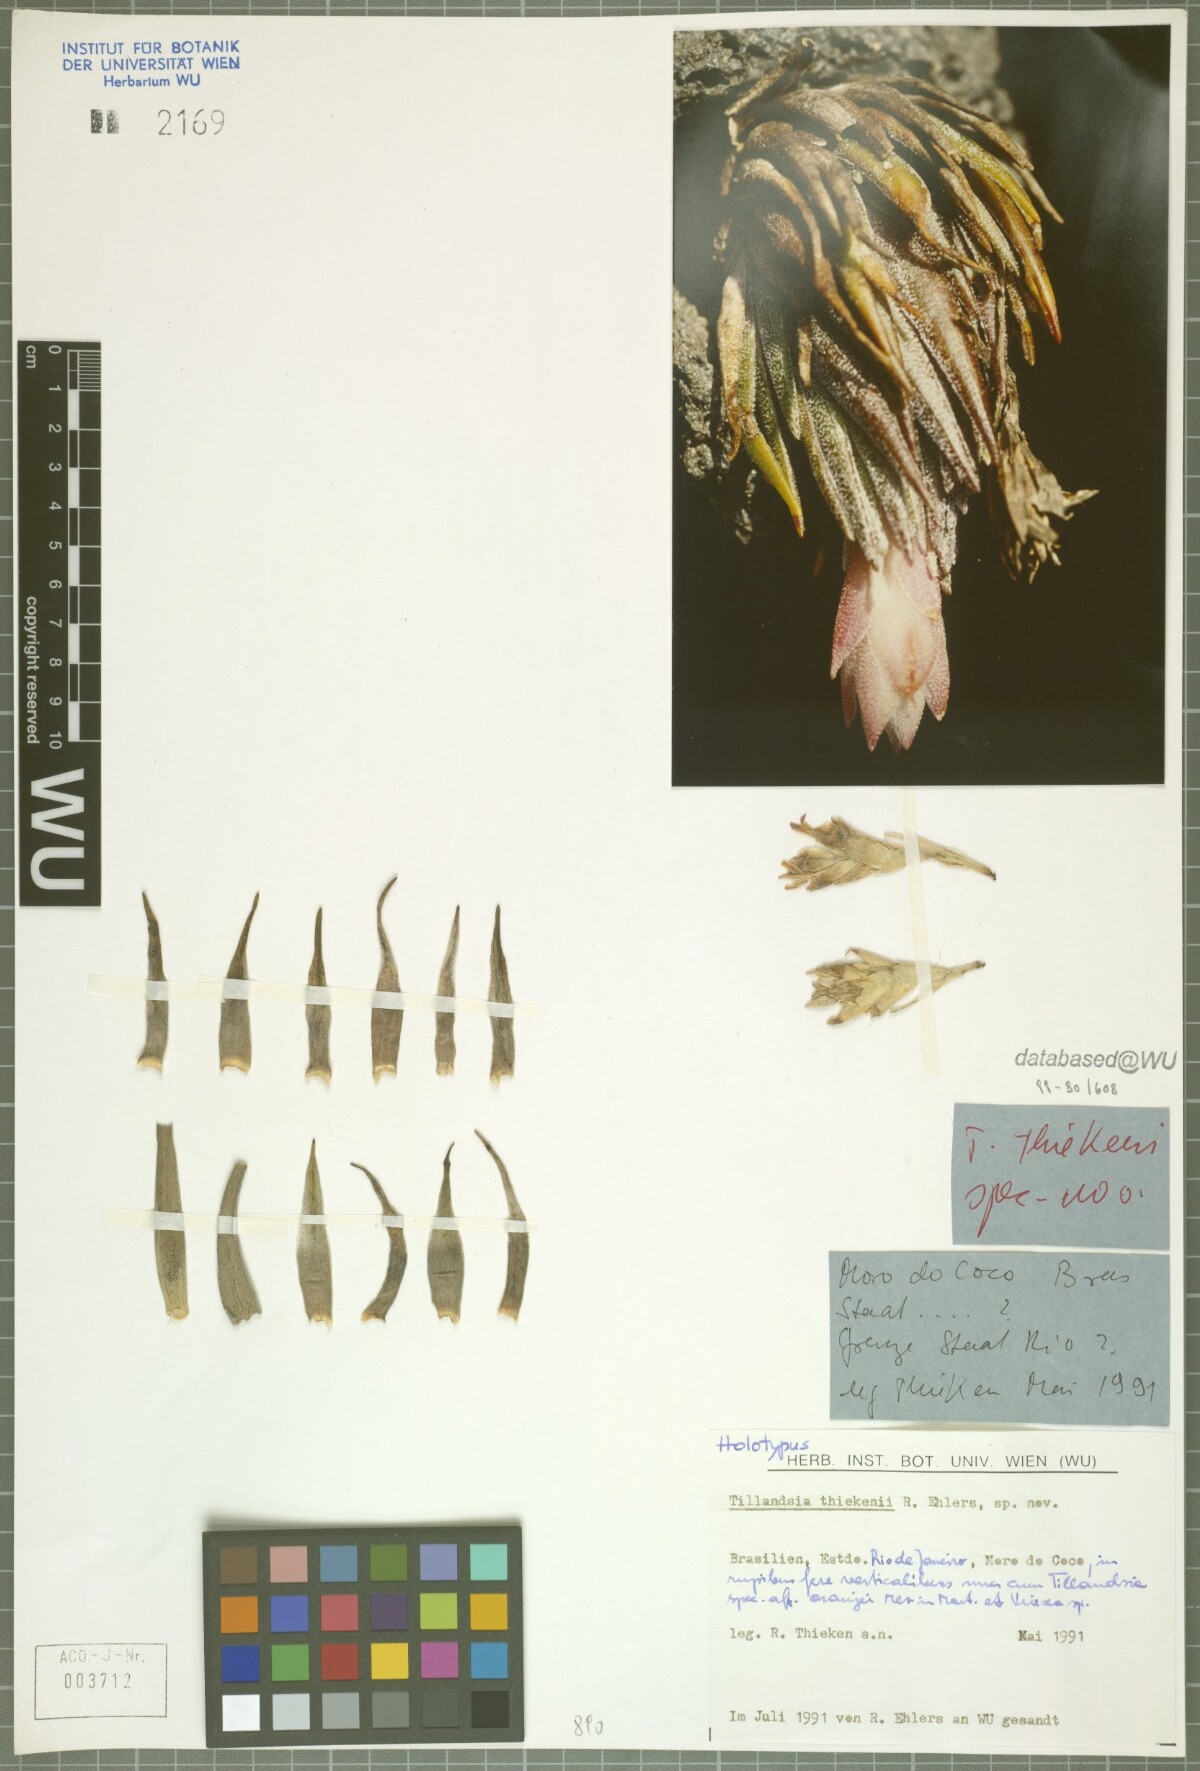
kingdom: Plantae
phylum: Tracheophyta
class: Liliopsida
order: Poales
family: Bromeliaceae
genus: Tillandsia
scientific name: Tillandsia thiekenii
